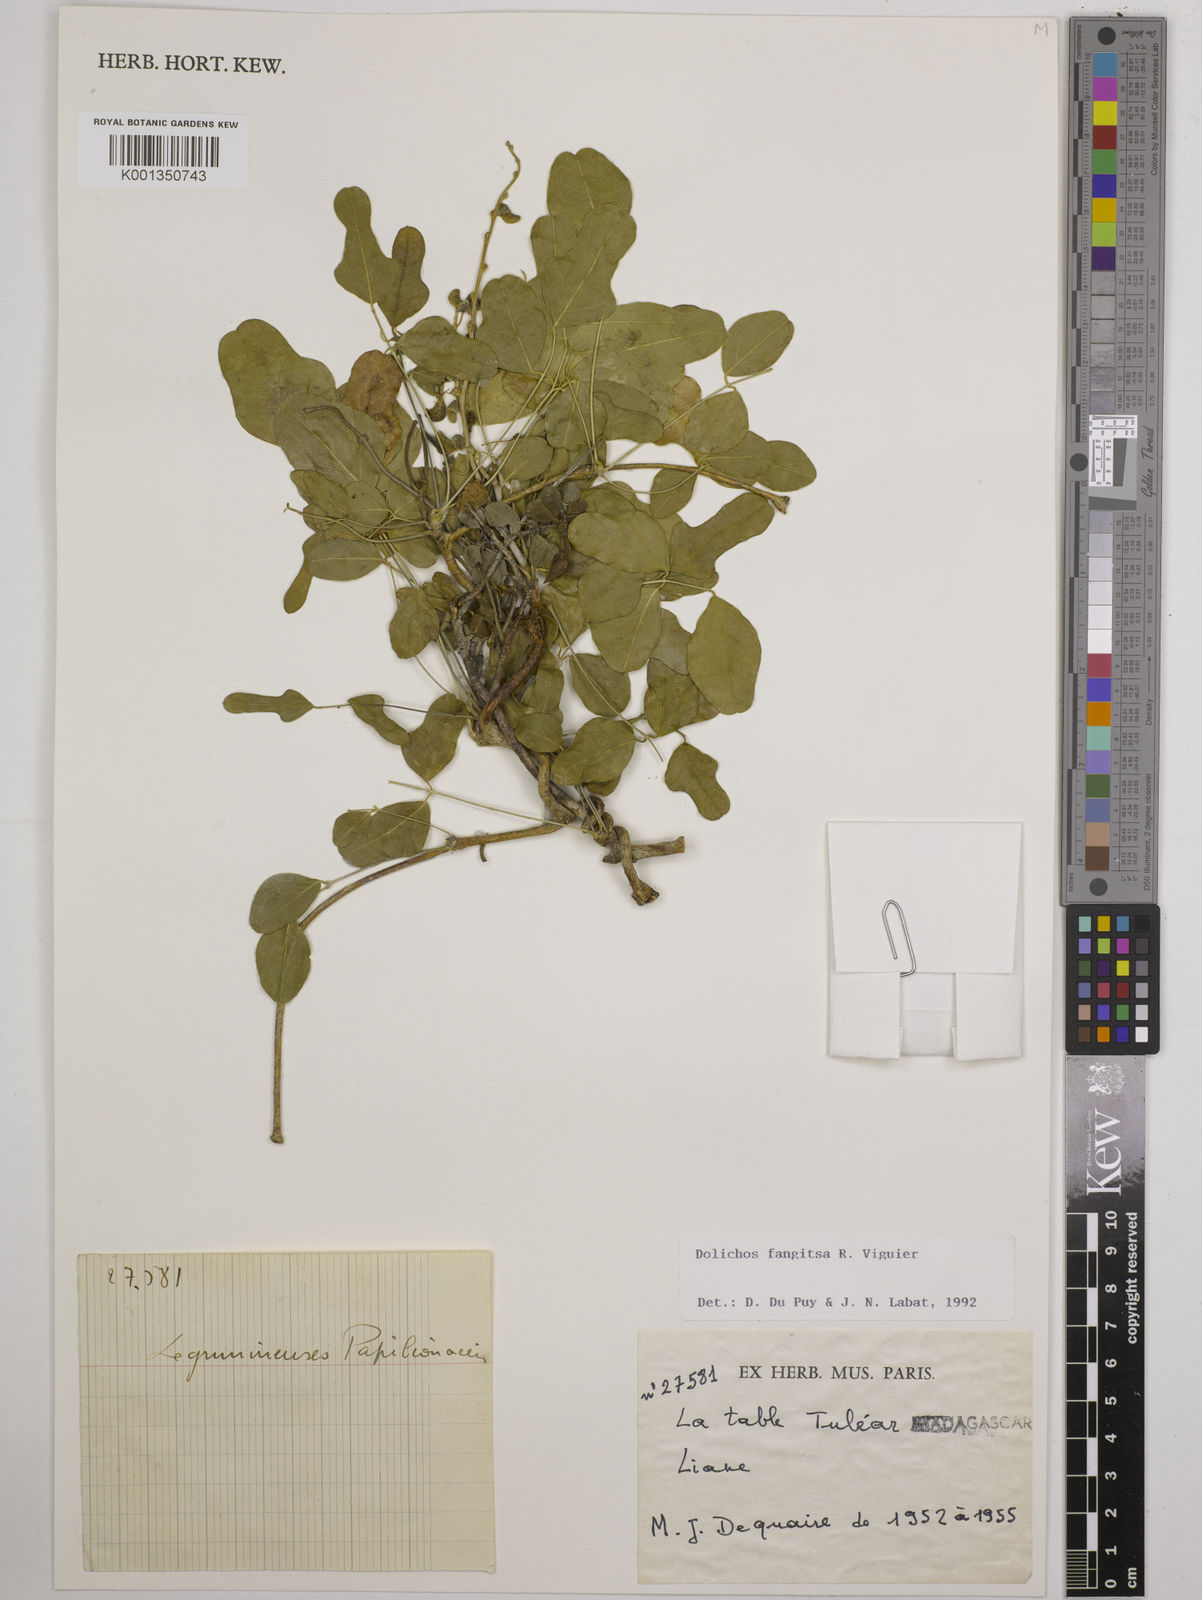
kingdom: Plantae
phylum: Tracheophyta
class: Magnoliopsida
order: Fabales
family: Fabaceae
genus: Dolichos
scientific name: Dolichos fangitsa
